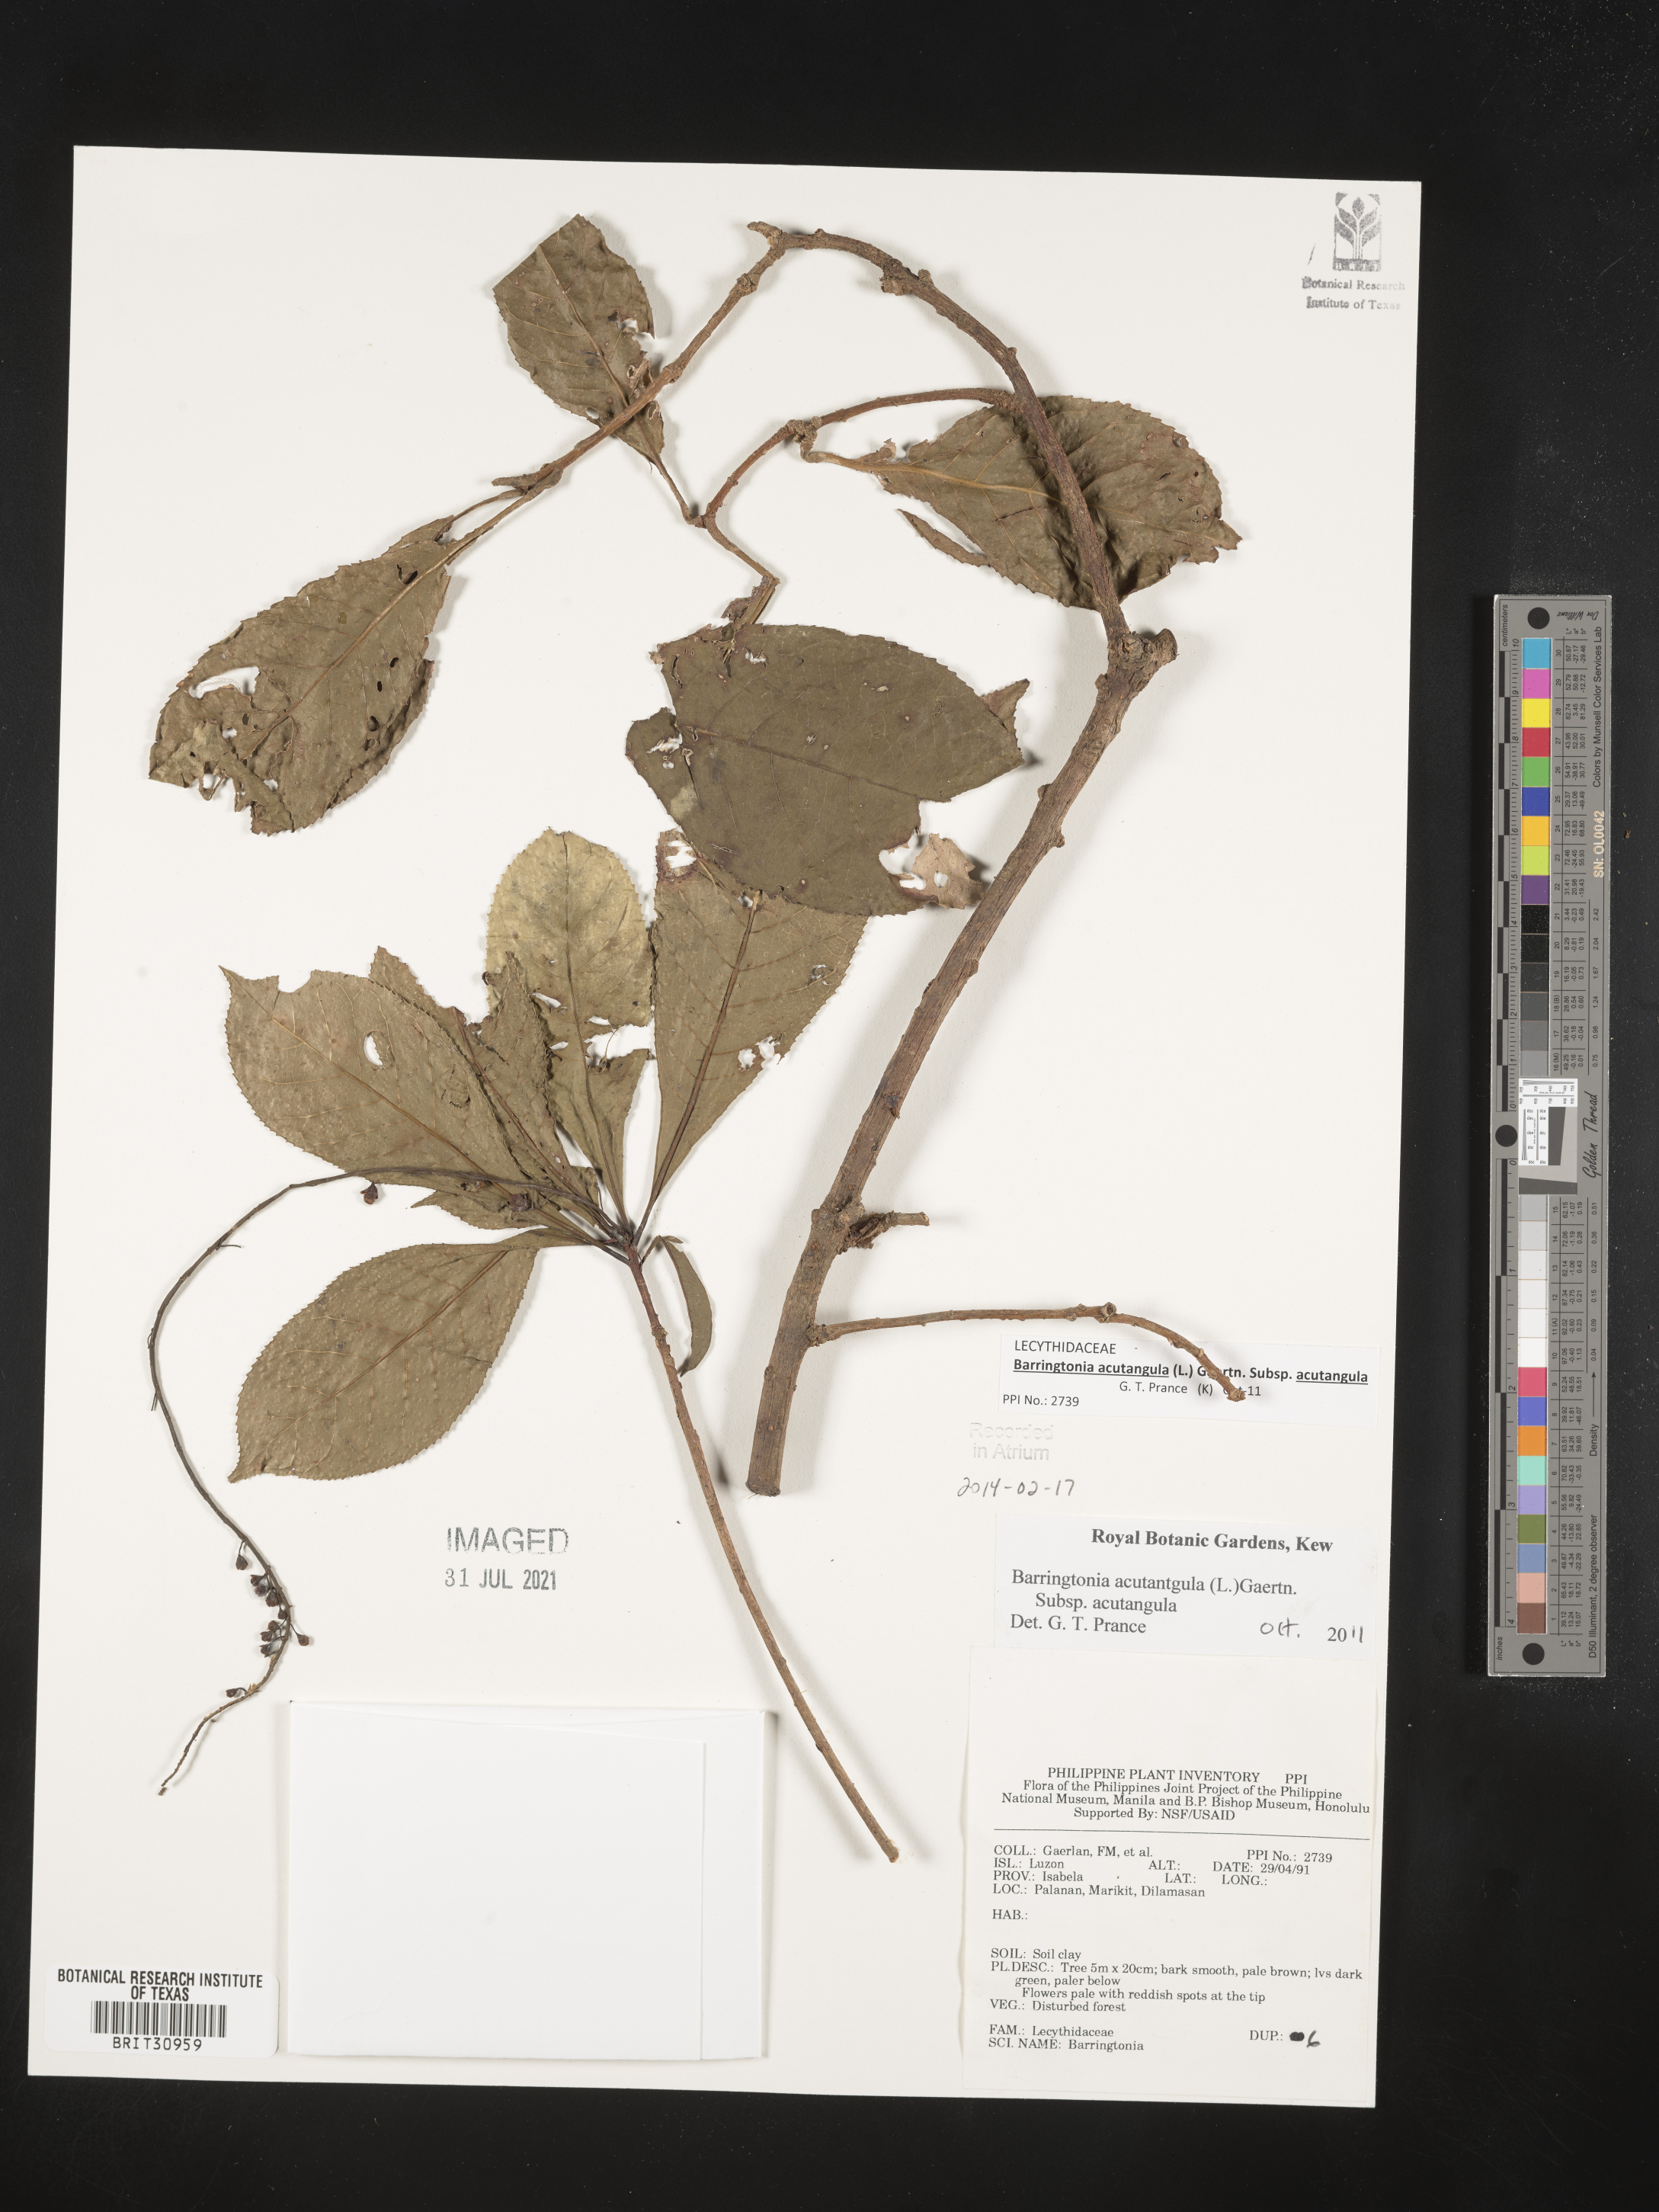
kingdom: Plantae
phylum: Tracheophyta
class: Magnoliopsida
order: Ericales
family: Lecythidaceae
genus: Barringtonia
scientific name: Barringtonia
